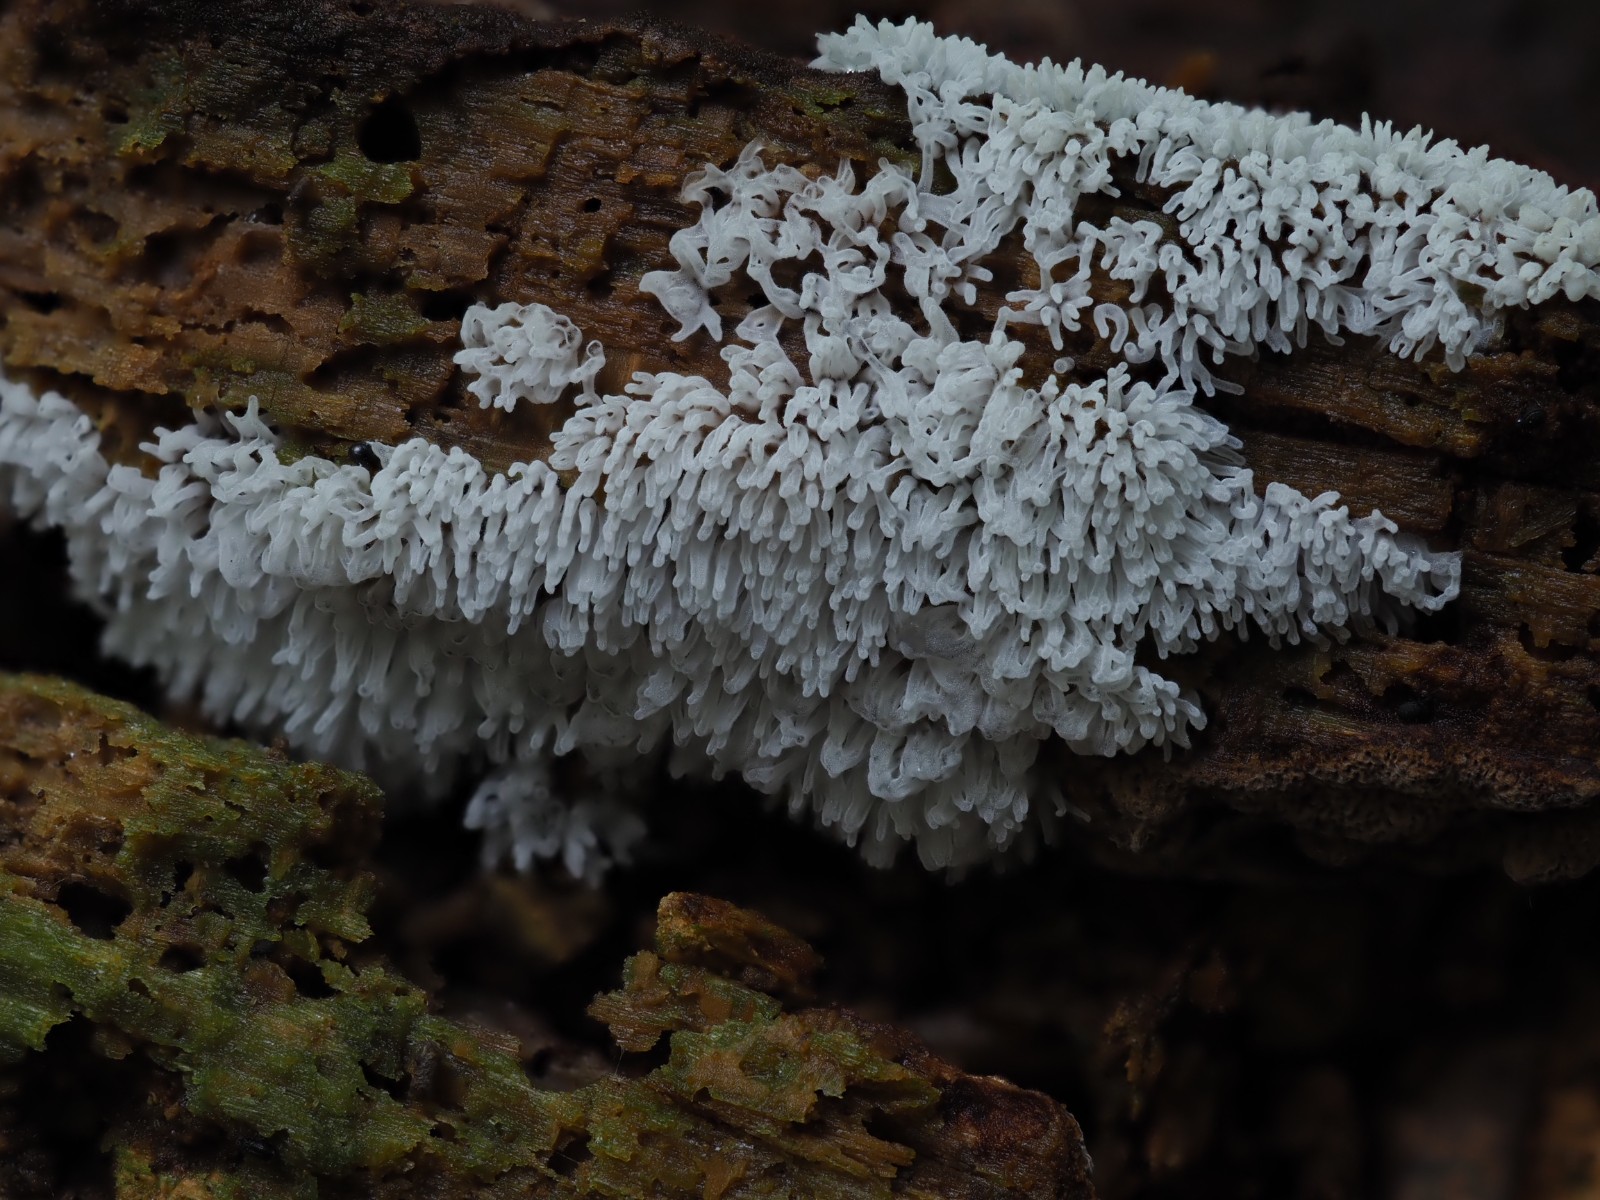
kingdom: Protozoa
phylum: Mycetozoa
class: Protosteliomycetes
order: Ceratiomyxales
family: Ceratiomyxaceae
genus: Ceratiomyxa
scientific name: Ceratiomyxa fruticulosa
